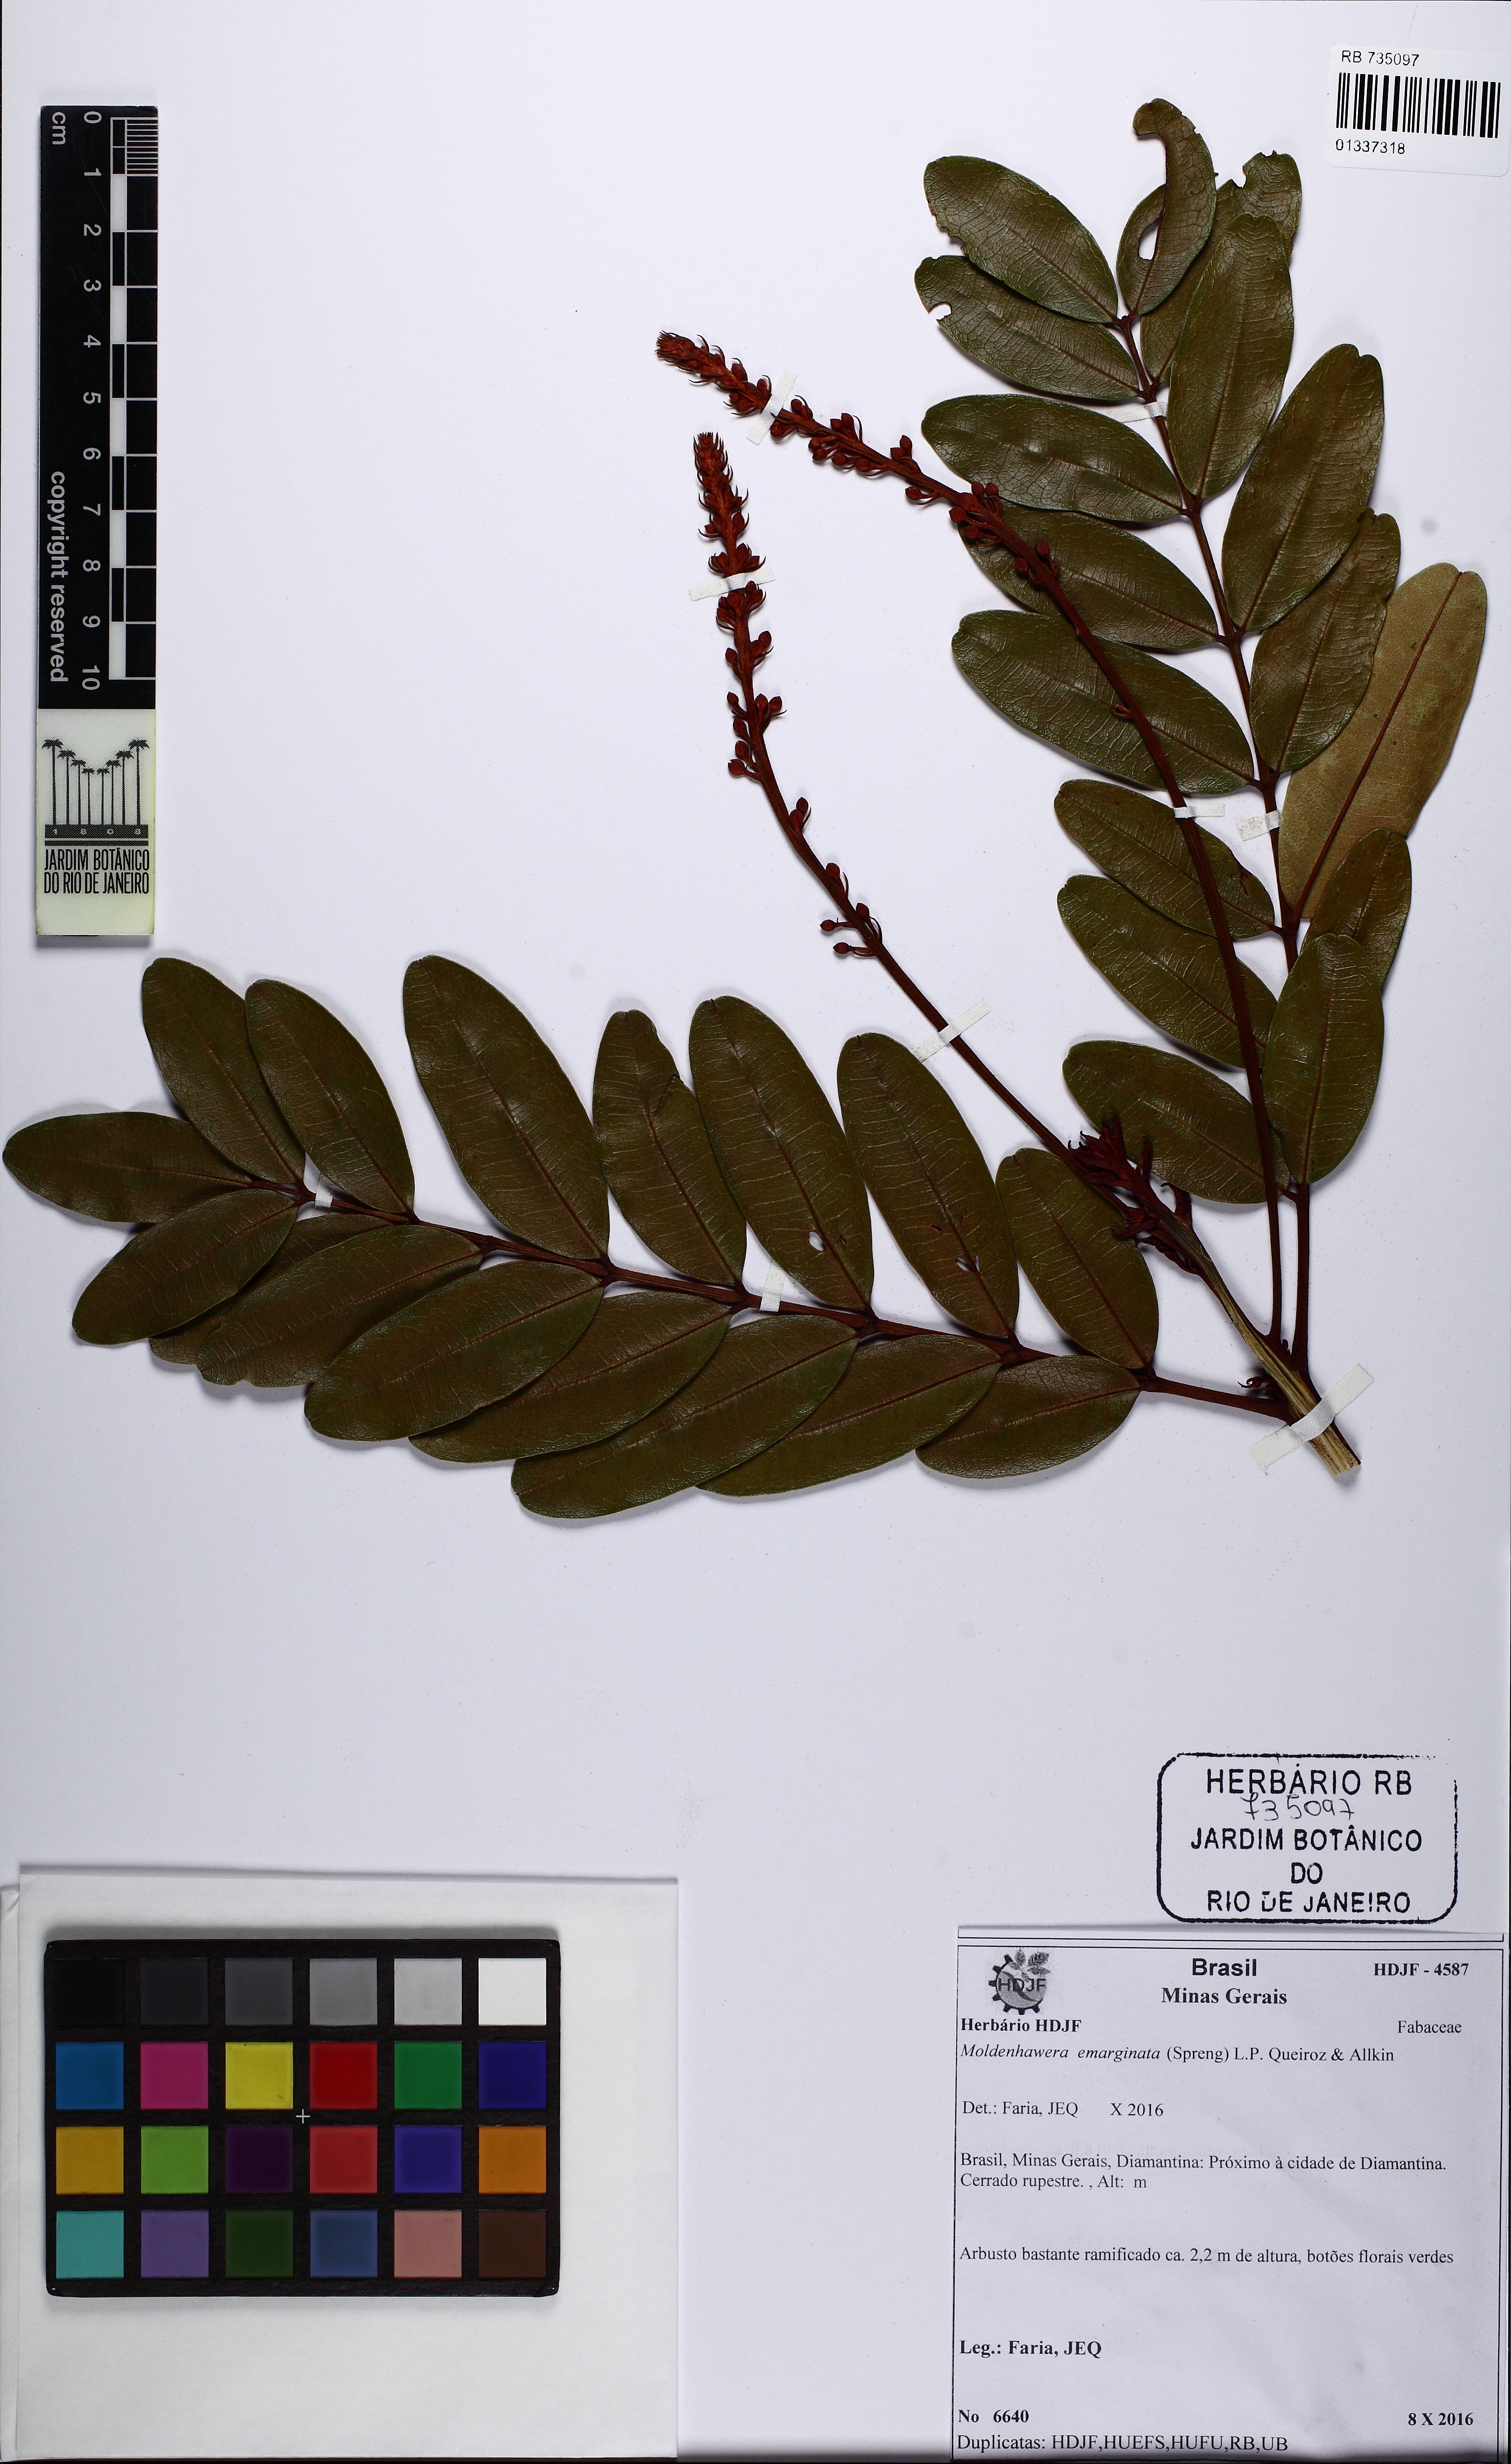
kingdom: Plantae
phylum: Tracheophyta
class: Magnoliopsida
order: Fabales
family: Fabaceae
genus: Moldenhawera
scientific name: Moldenhawera emarginata
